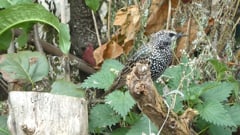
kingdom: Animalia
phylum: Chordata
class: Aves
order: Passeriformes
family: Sturnidae
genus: Sturnus
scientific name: Sturnus vulgaris
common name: Common starling
